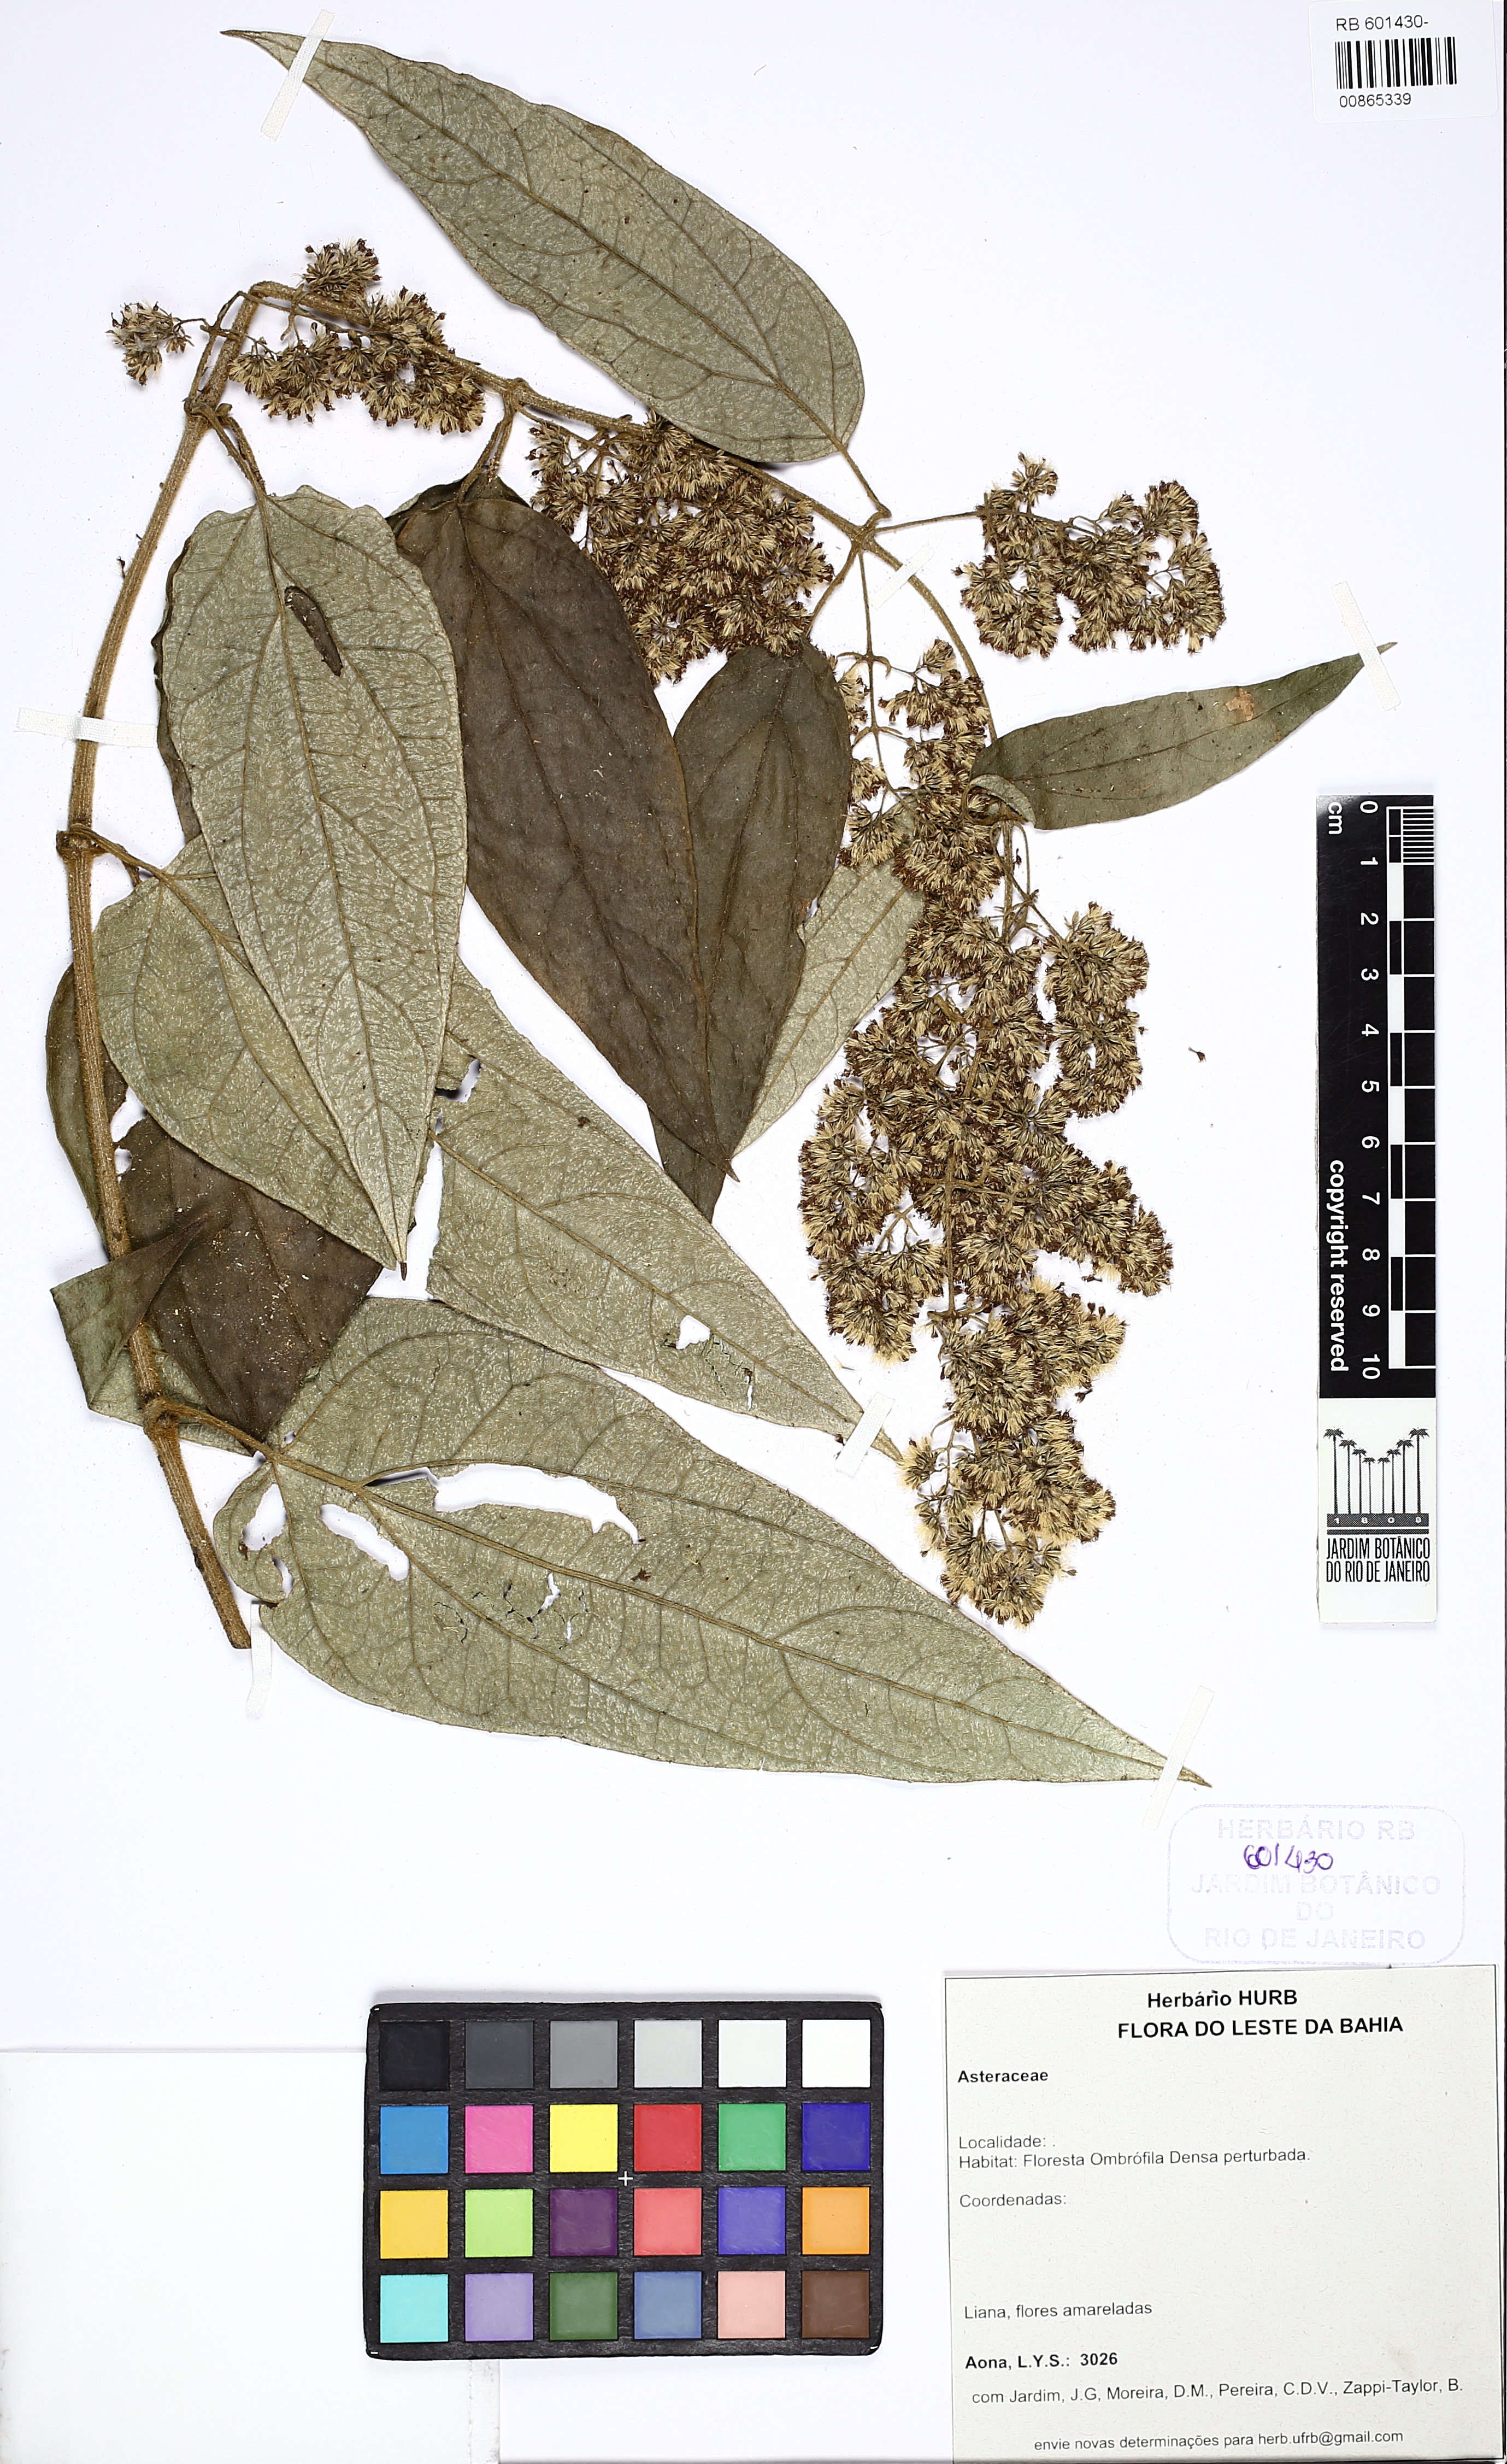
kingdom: Plantae
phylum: Tracheophyta
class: Magnoliopsida
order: Asterales
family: Asteraceae
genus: Mikania
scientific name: Mikania trichophila
